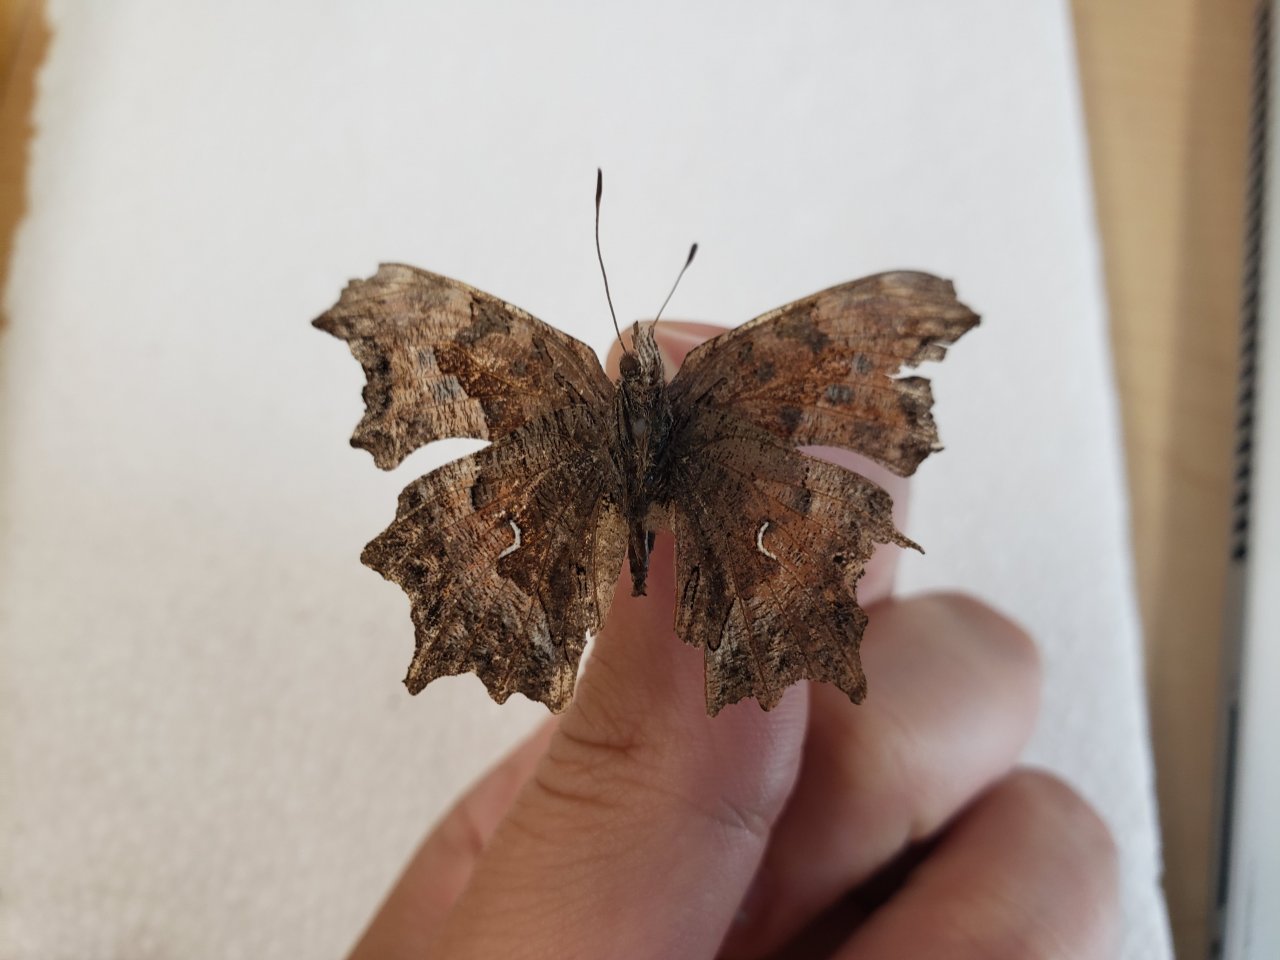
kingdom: Animalia
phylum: Arthropoda
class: Insecta
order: Lepidoptera
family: Nymphalidae
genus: Polygonia
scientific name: Polygonia gracilis
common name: Hoary Comma
